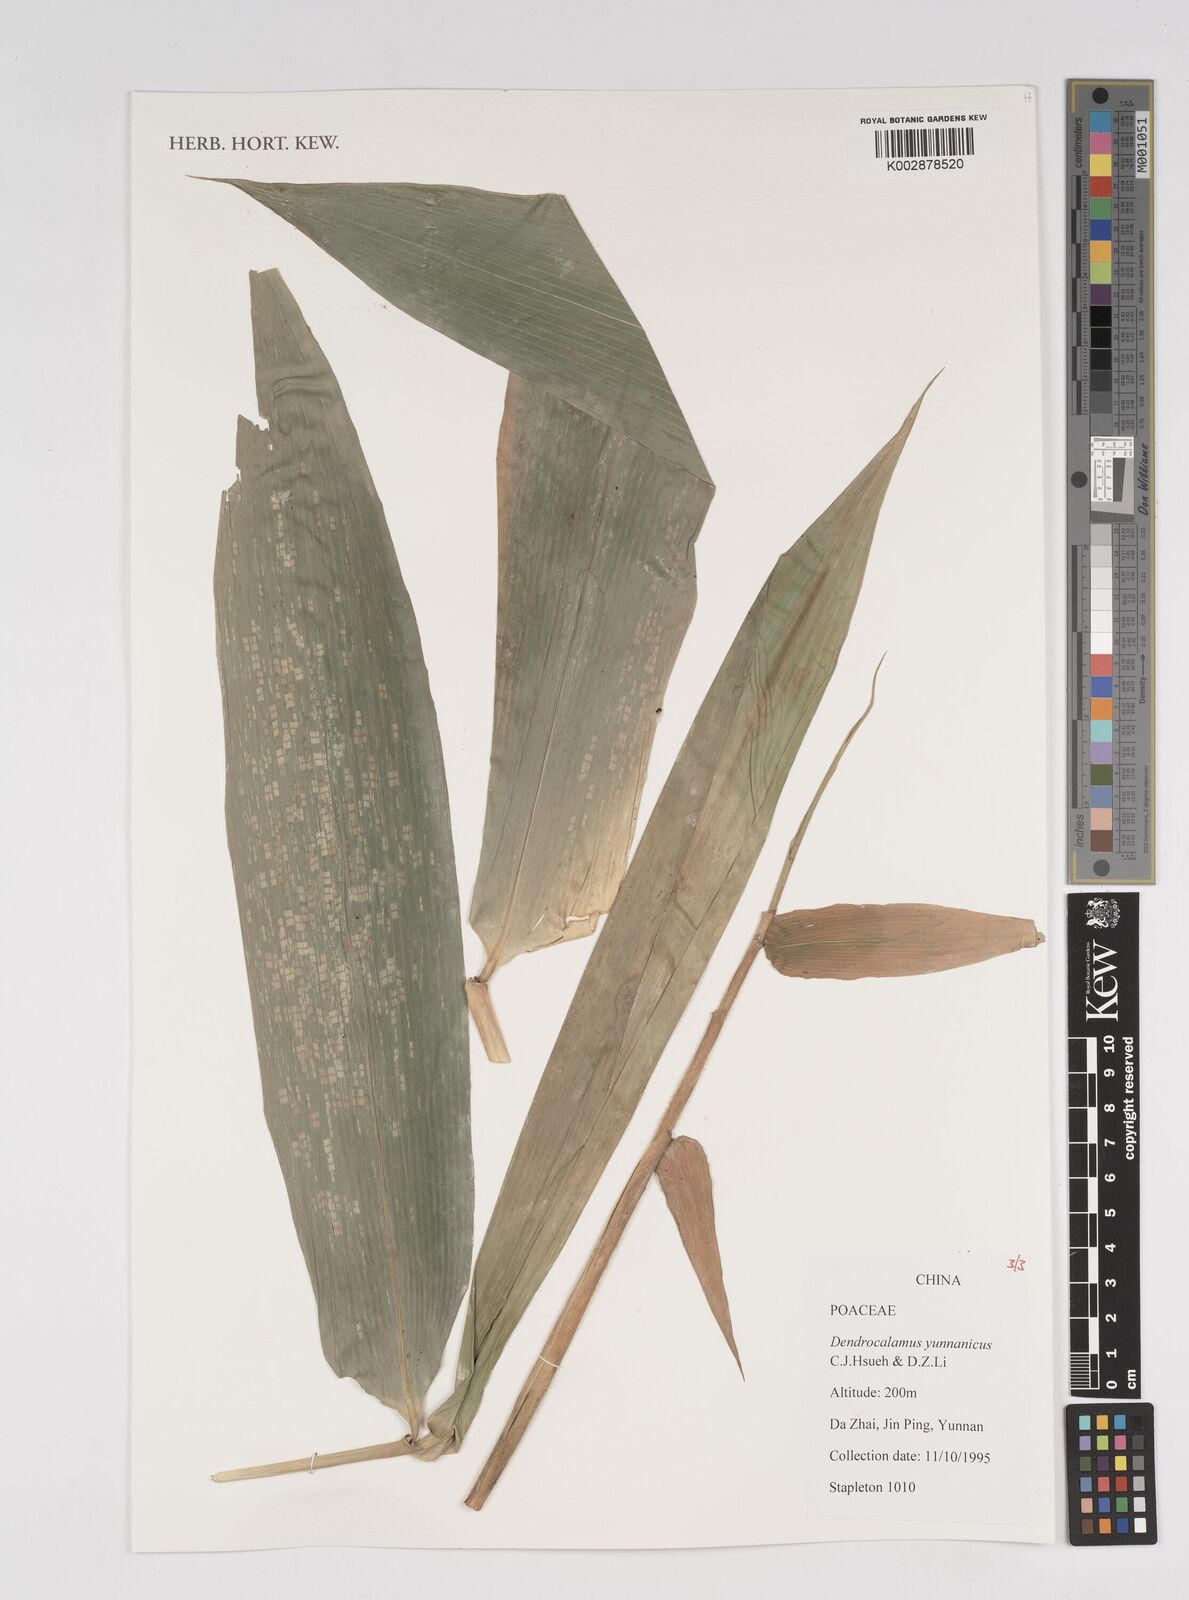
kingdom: Plantae
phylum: Tracheophyta
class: Liliopsida
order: Poales
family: Poaceae
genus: Dendrocalamus
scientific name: Dendrocalamus yunnanicus
